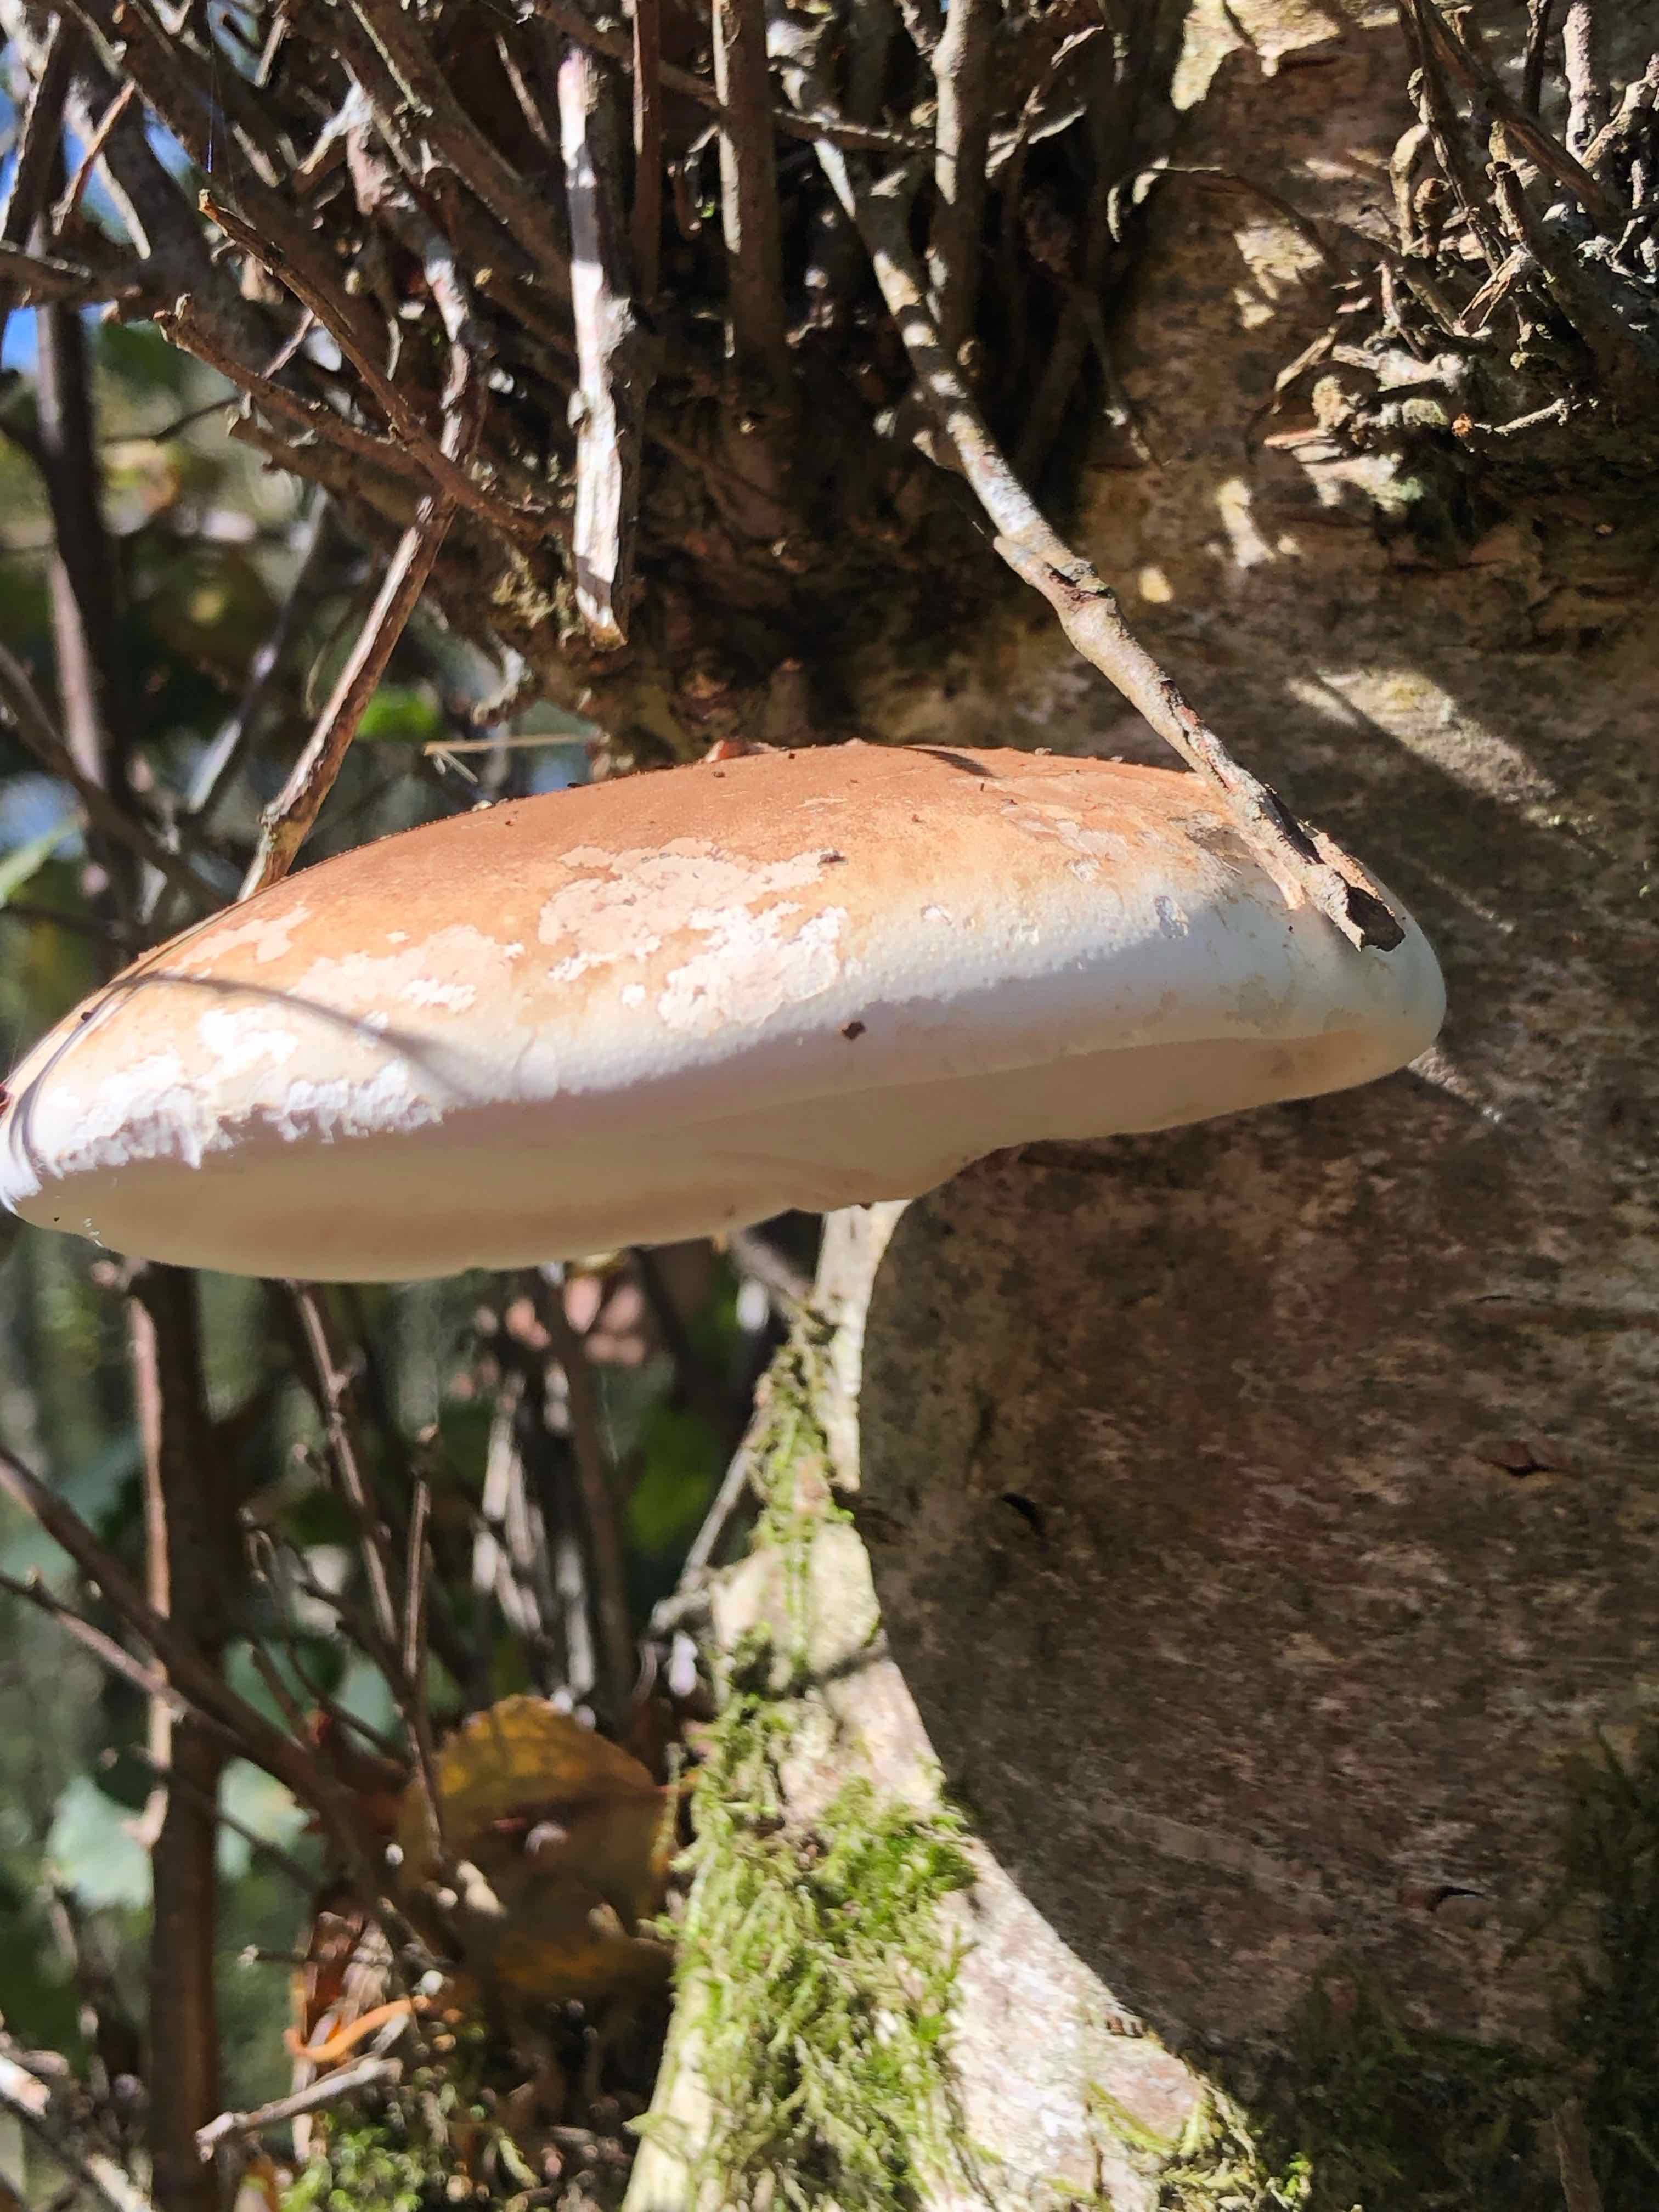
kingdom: Fungi
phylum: Basidiomycota
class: Agaricomycetes
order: Polyporales
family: Fomitopsidaceae
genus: Fomitopsis
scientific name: Fomitopsis betulina
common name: birkeporesvamp
